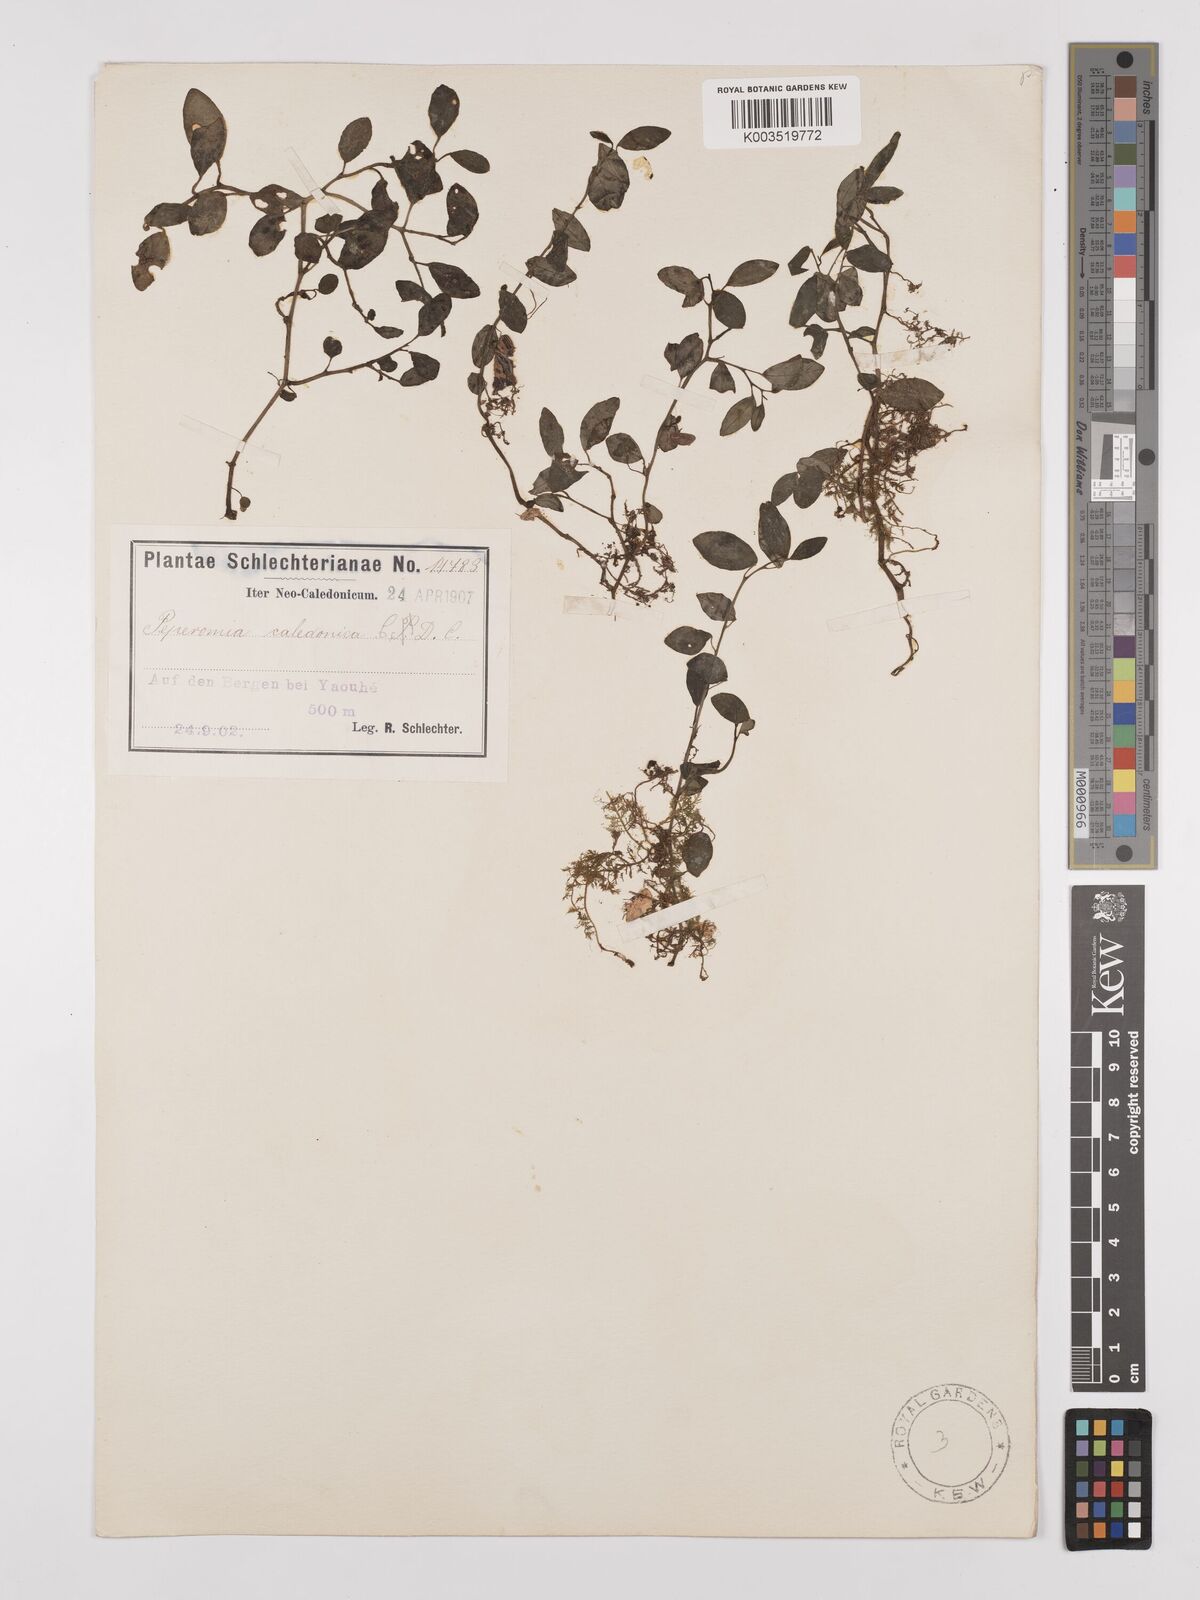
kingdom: Plantae
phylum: Tracheophyta
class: Magnoliopsida
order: Piperales
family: Piperaceae
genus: Peperomia
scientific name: Peperomia urvilleana
